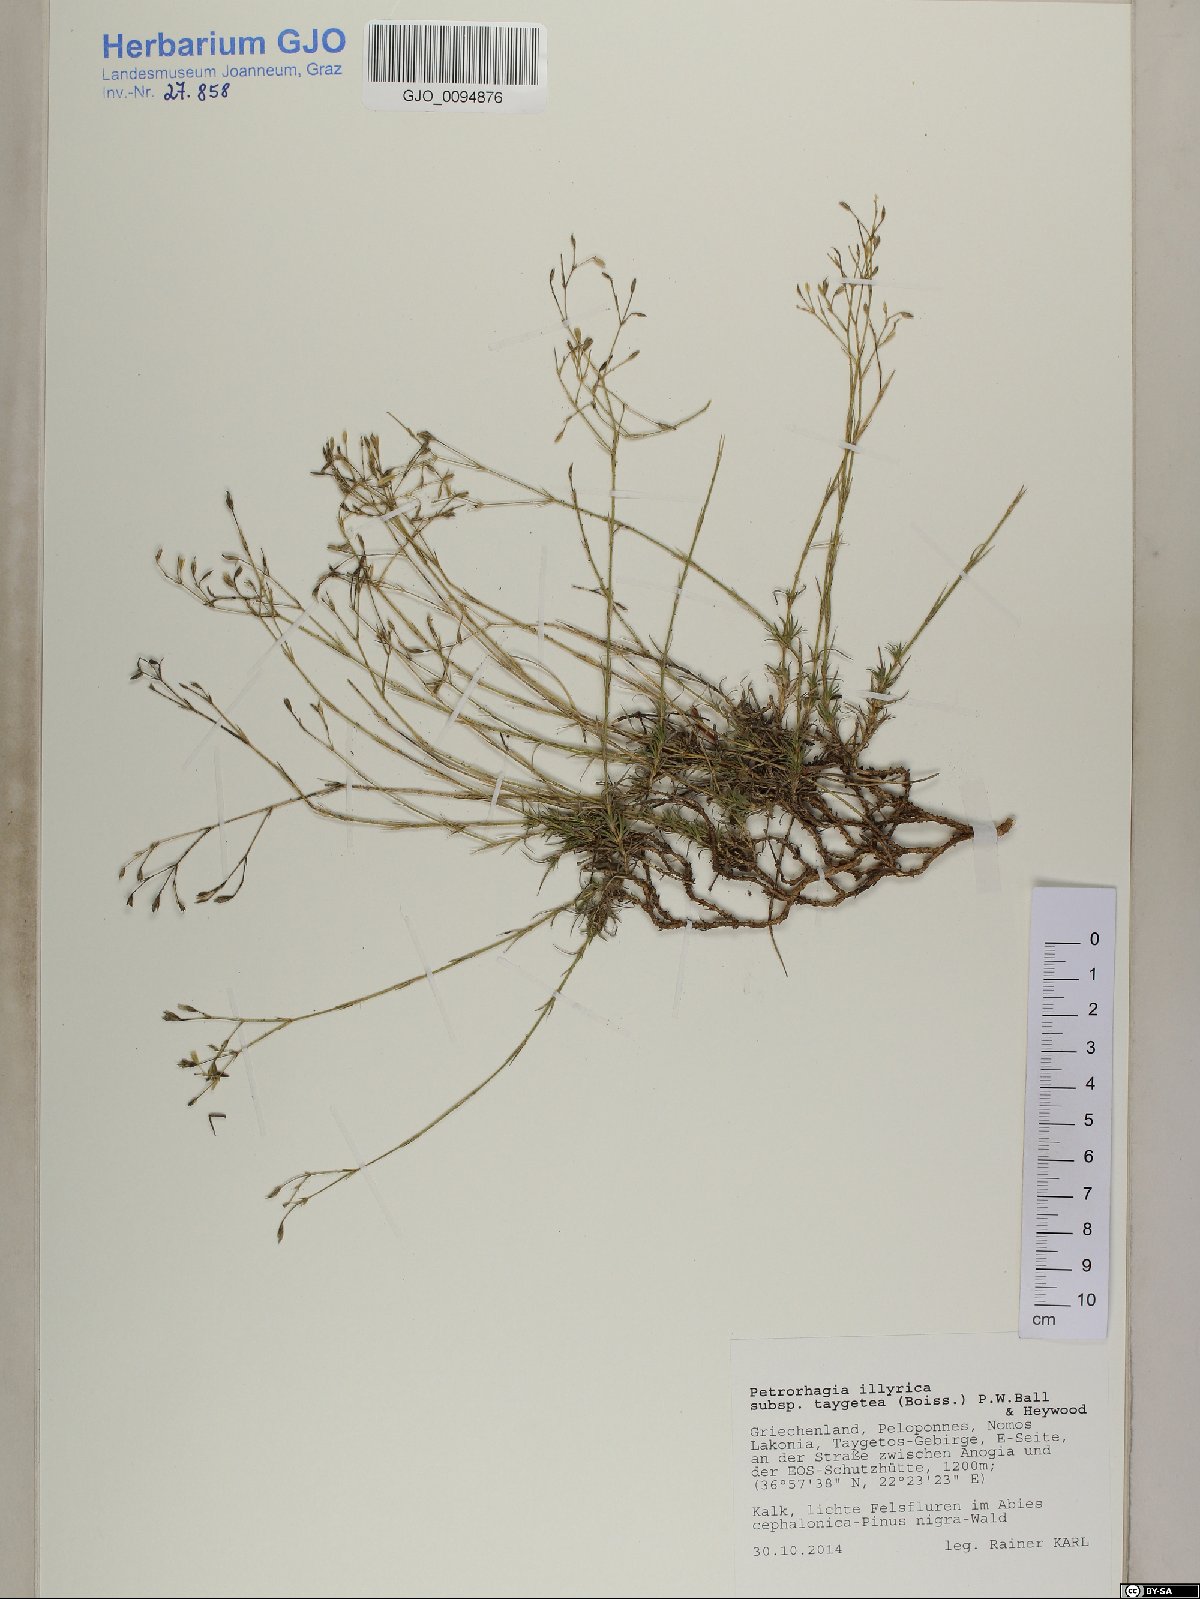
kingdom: Plantae
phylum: Tracheophyta
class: Magnoliopsida
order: Caryophyllales
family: Caryophyllaceae
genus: Dianthus
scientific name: Dianthus illyricus
